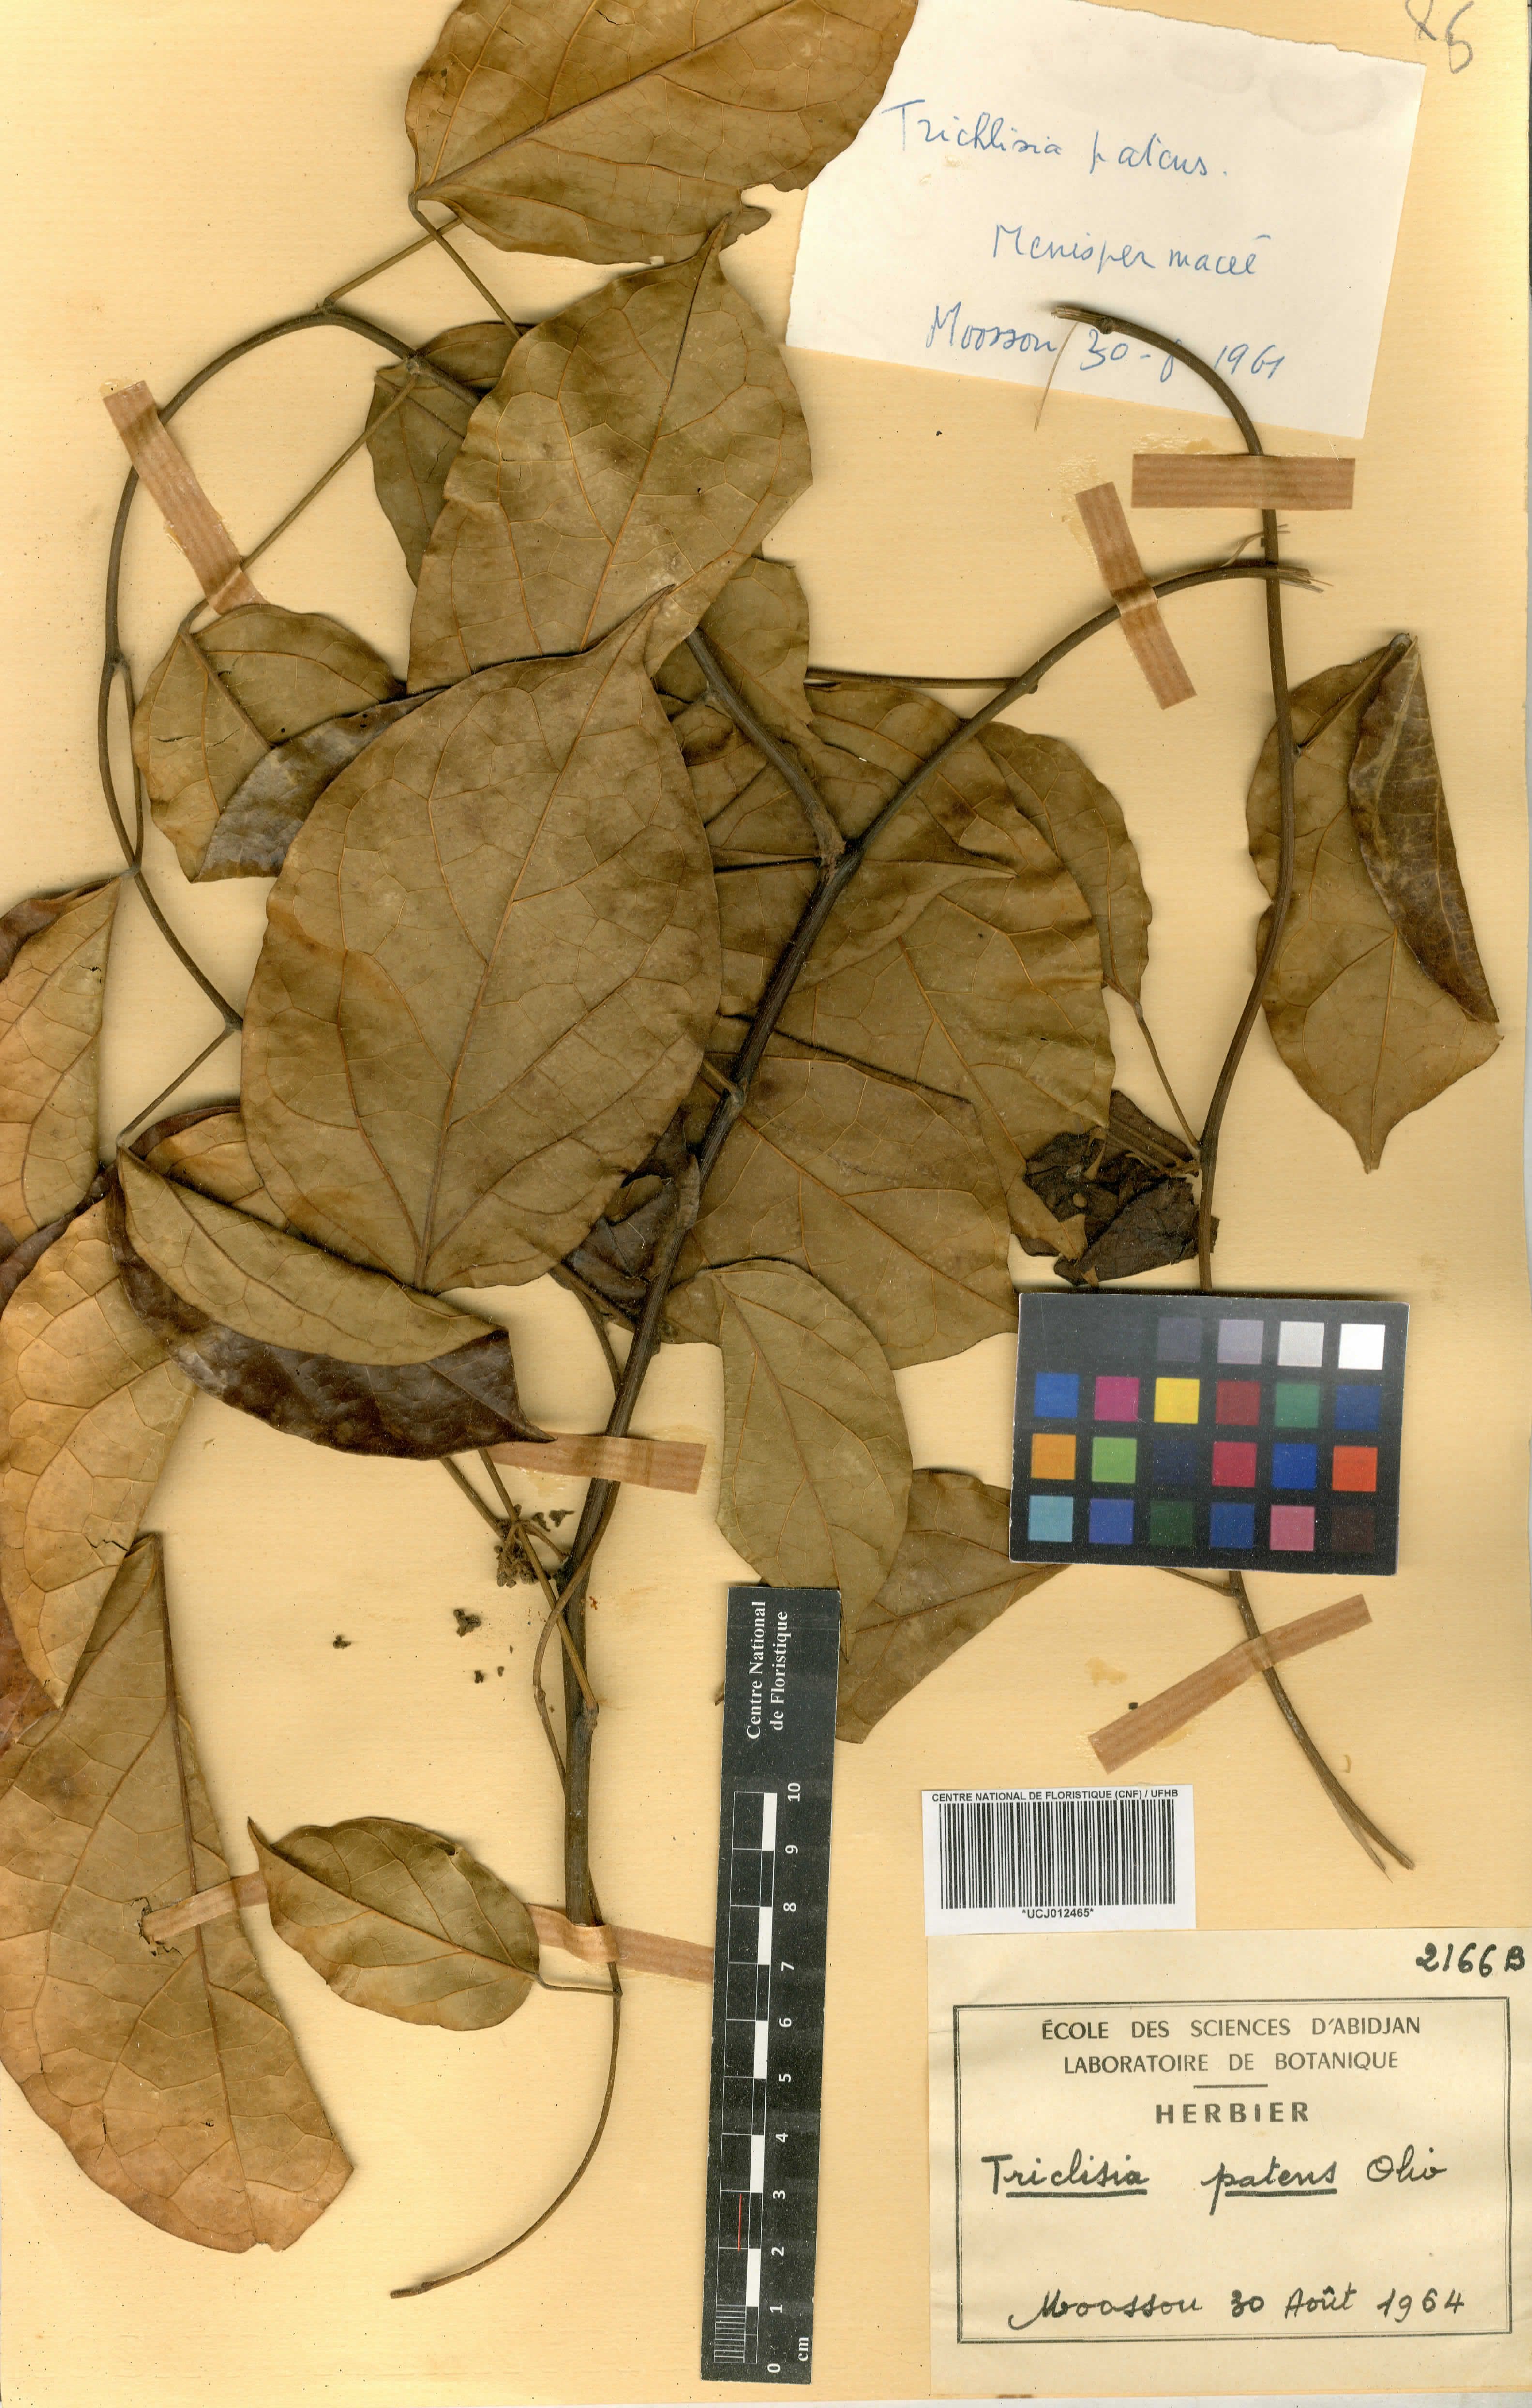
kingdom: Plantae
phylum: Tracheophyta
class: Magnoliopsida
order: Ranunculales
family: Menispermaceae
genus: Triclisia
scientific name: Triclisia patens
